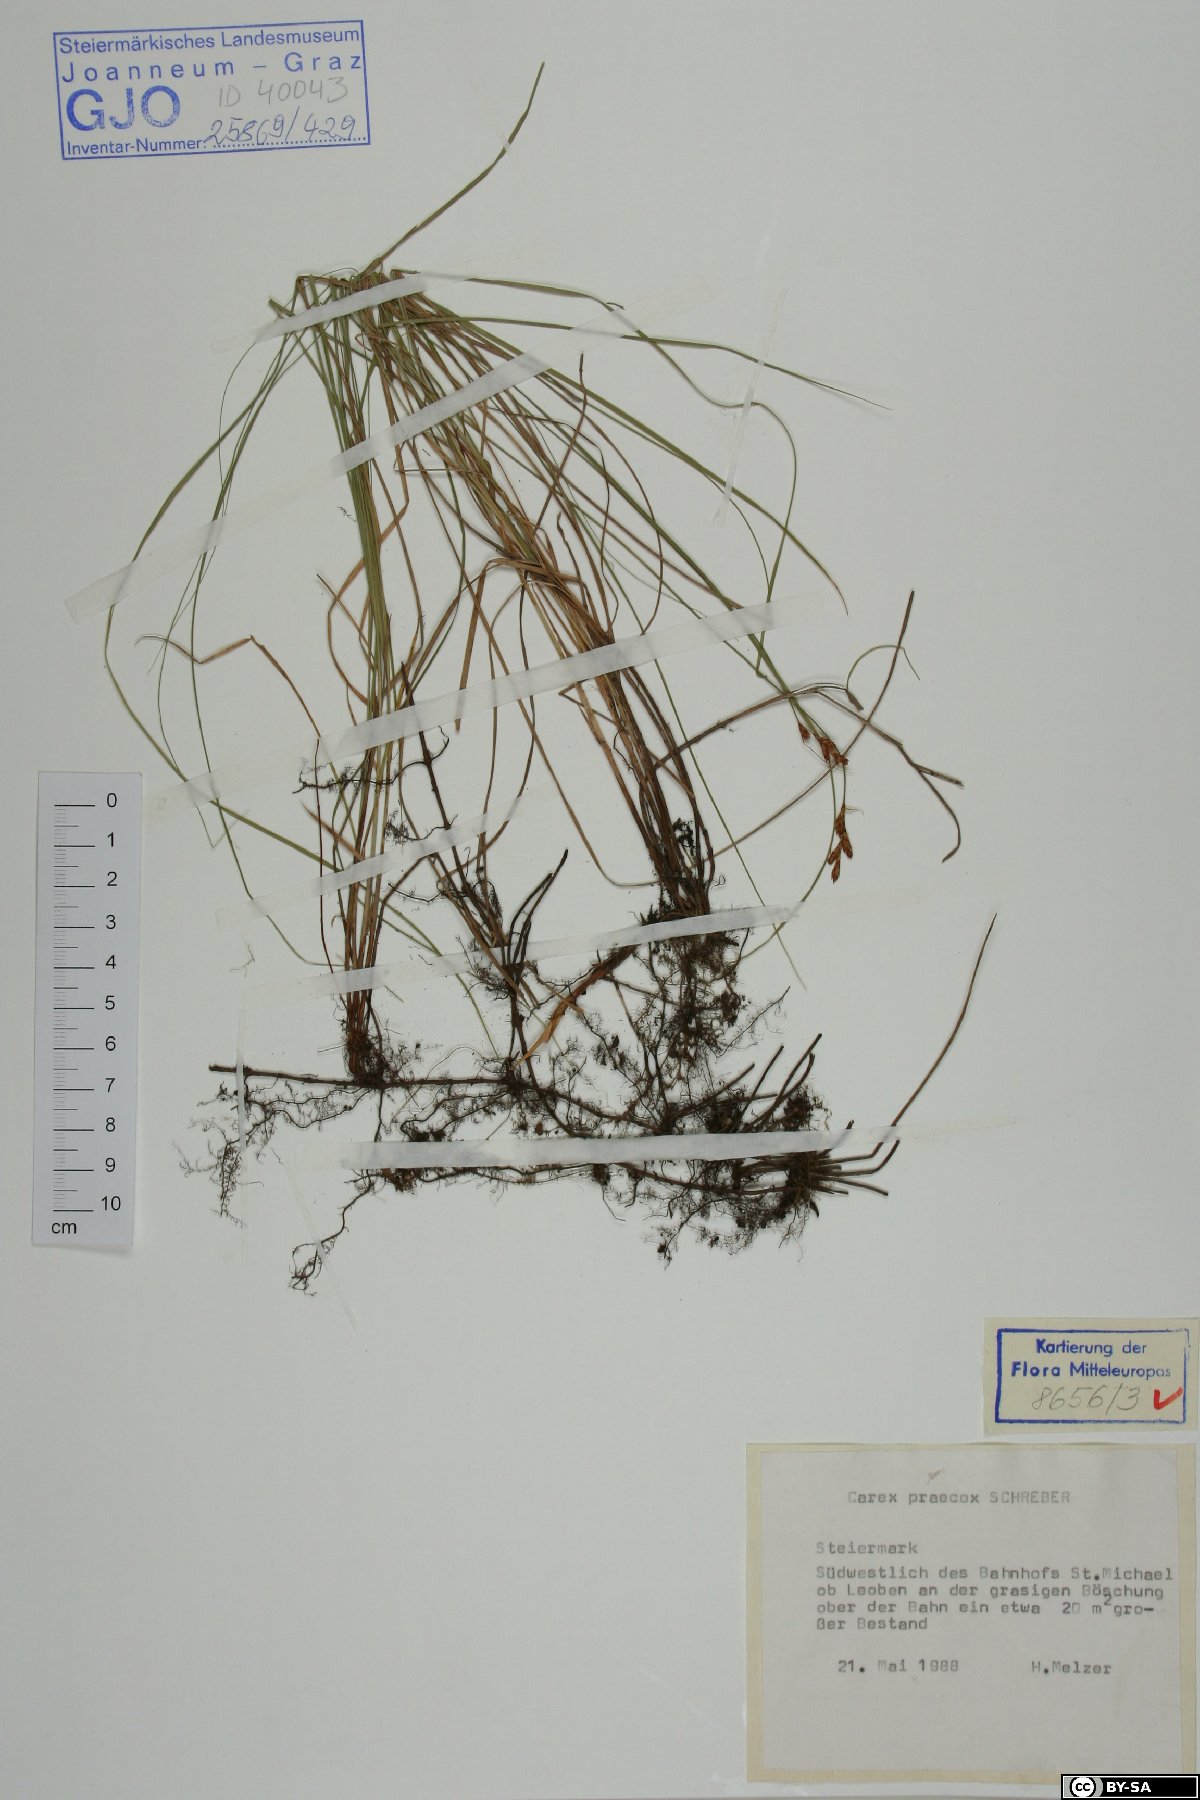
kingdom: Plantae
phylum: Tracheophyta
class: Liliopsida
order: Poales
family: Cyperaceae
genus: Carex
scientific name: Carex praecox
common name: Early sedge
